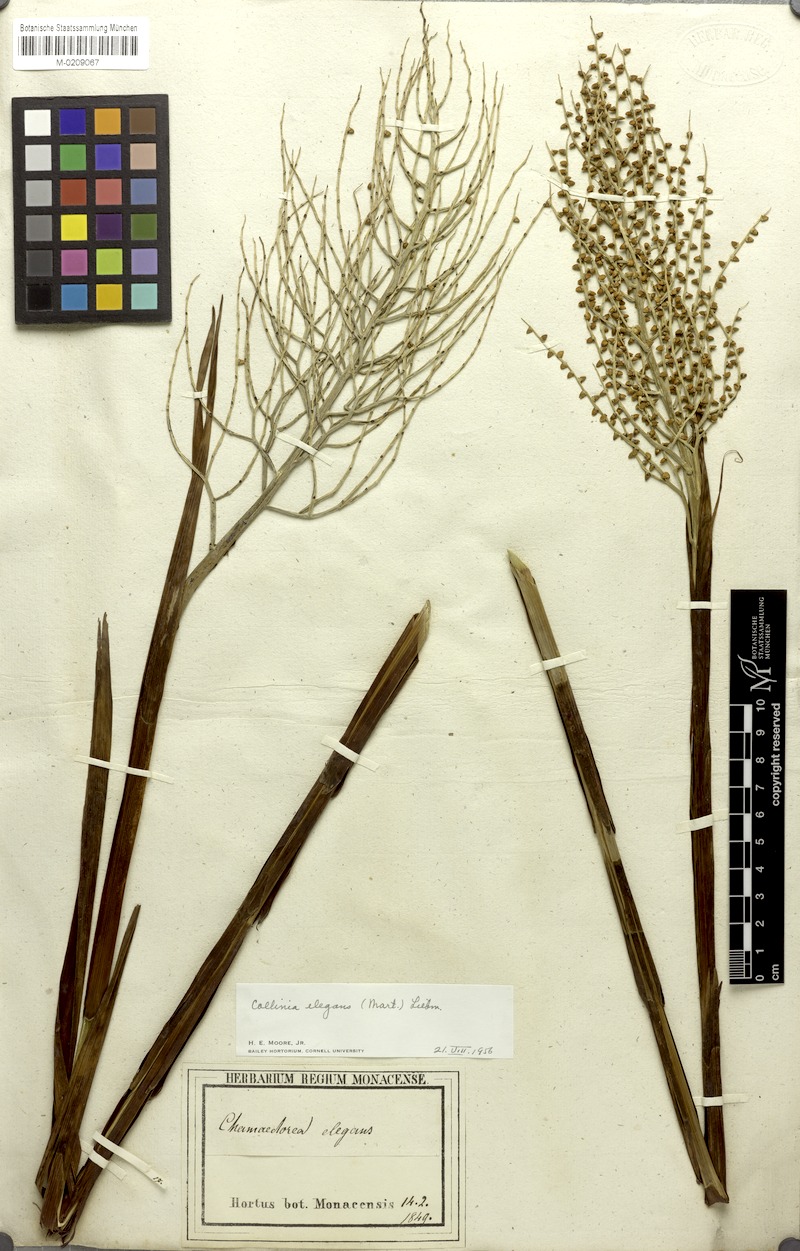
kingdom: Plantae
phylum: Tracheophyta
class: Liliopsida
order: Arecales
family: Arecaceae
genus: Chamaedorea
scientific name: Chamaedorea elegans
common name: Good-luck palm
